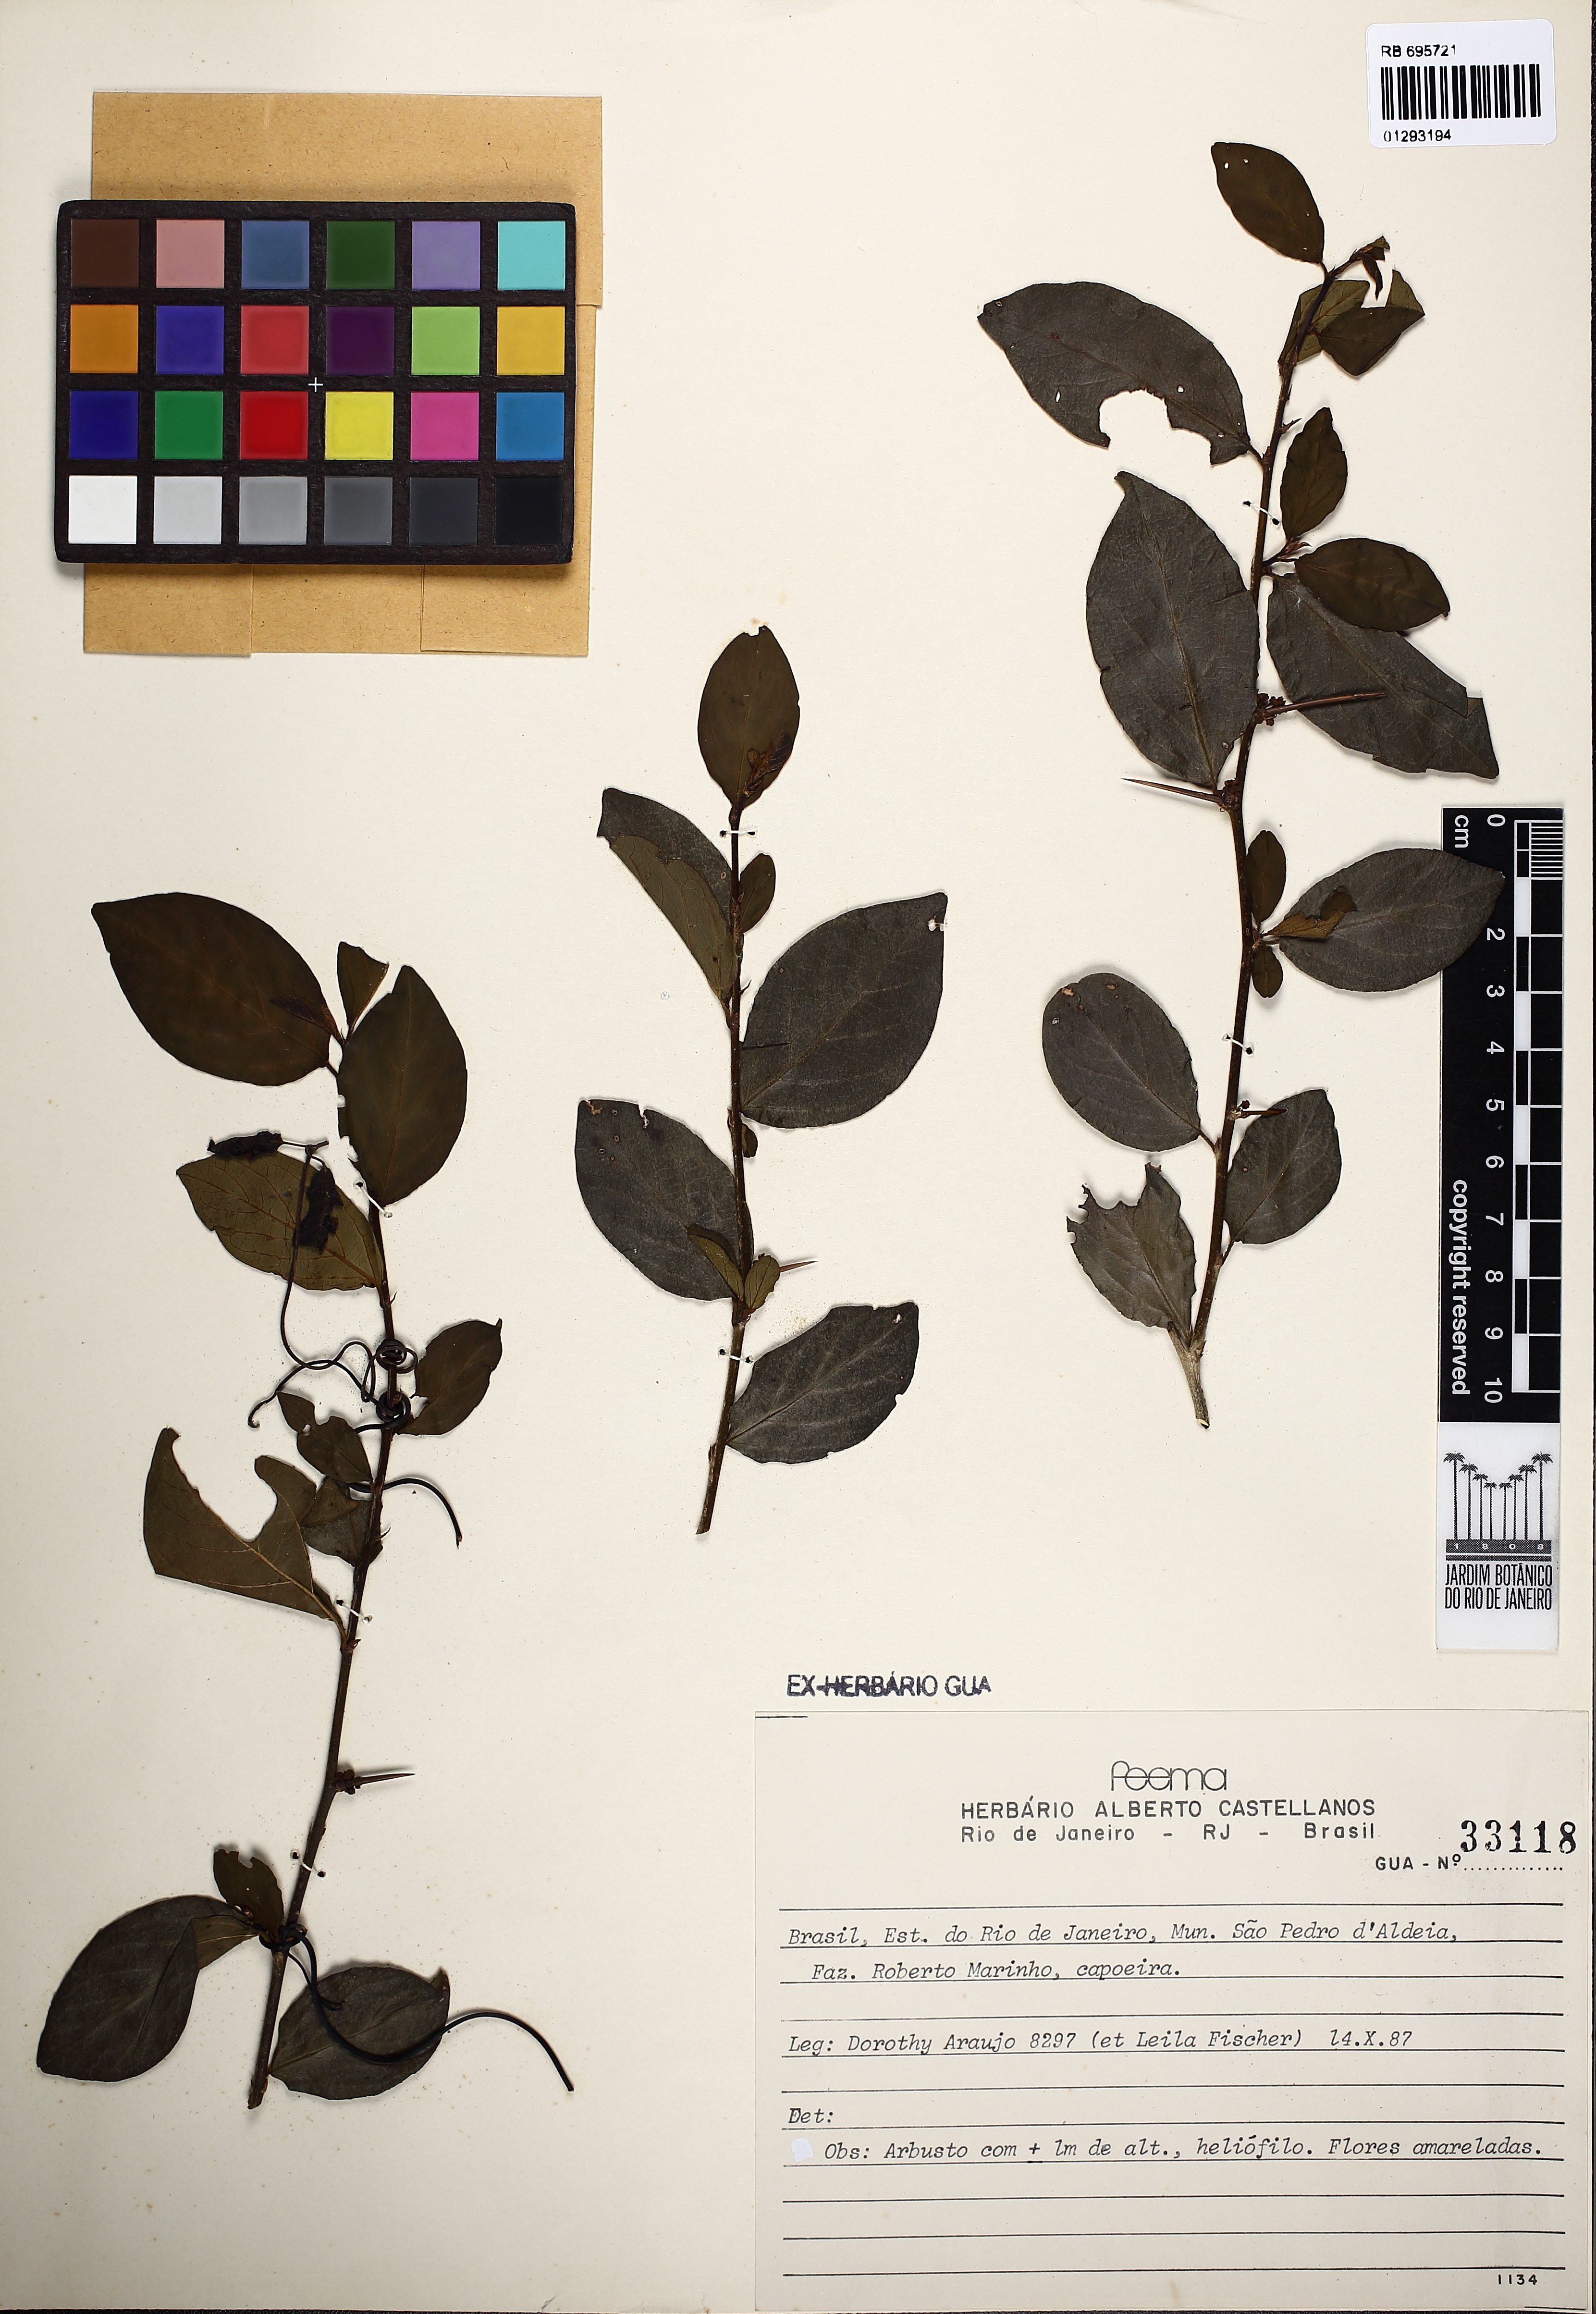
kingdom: Plantae
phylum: Tracheophyta
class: Magnoliopsida
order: Rosales
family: Rhamnaceae
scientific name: Rhamnaceae
